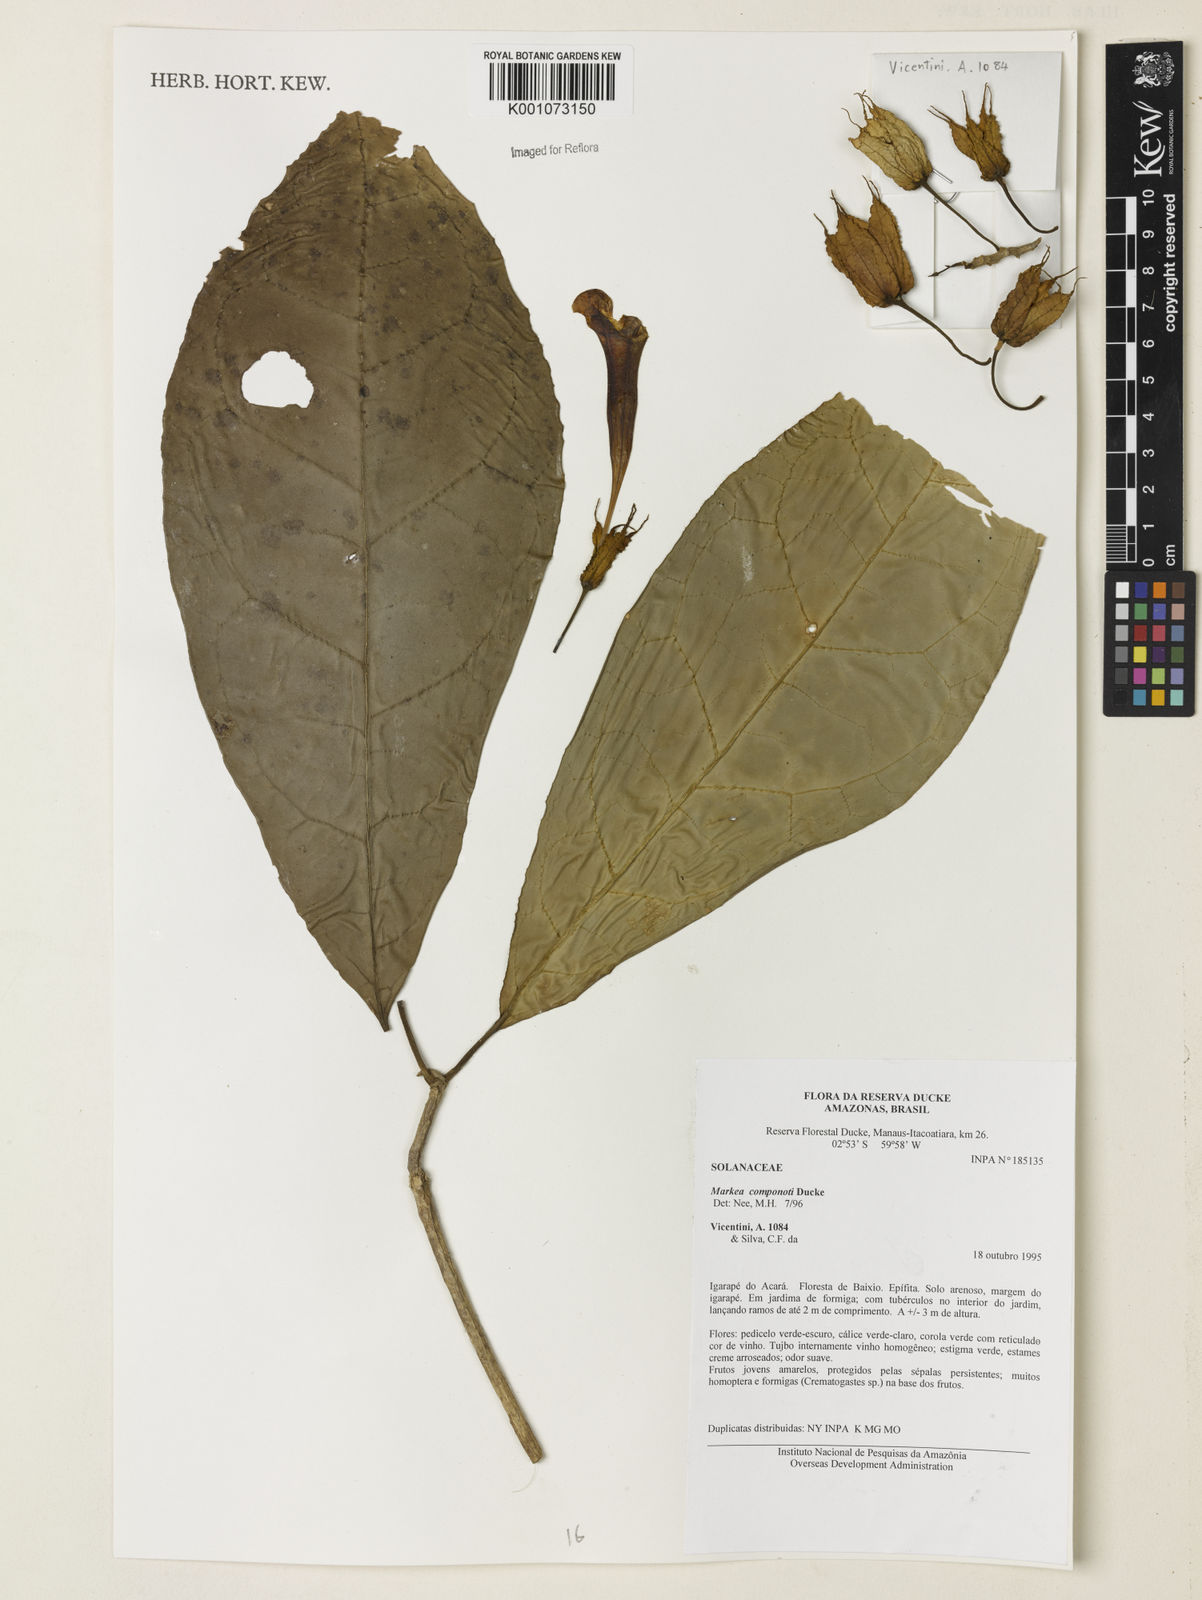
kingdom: Plantae
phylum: Tracheophyta
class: Magnoliopsida
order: Solanales
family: Solanaceae
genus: Markea
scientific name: Markea longiflora
